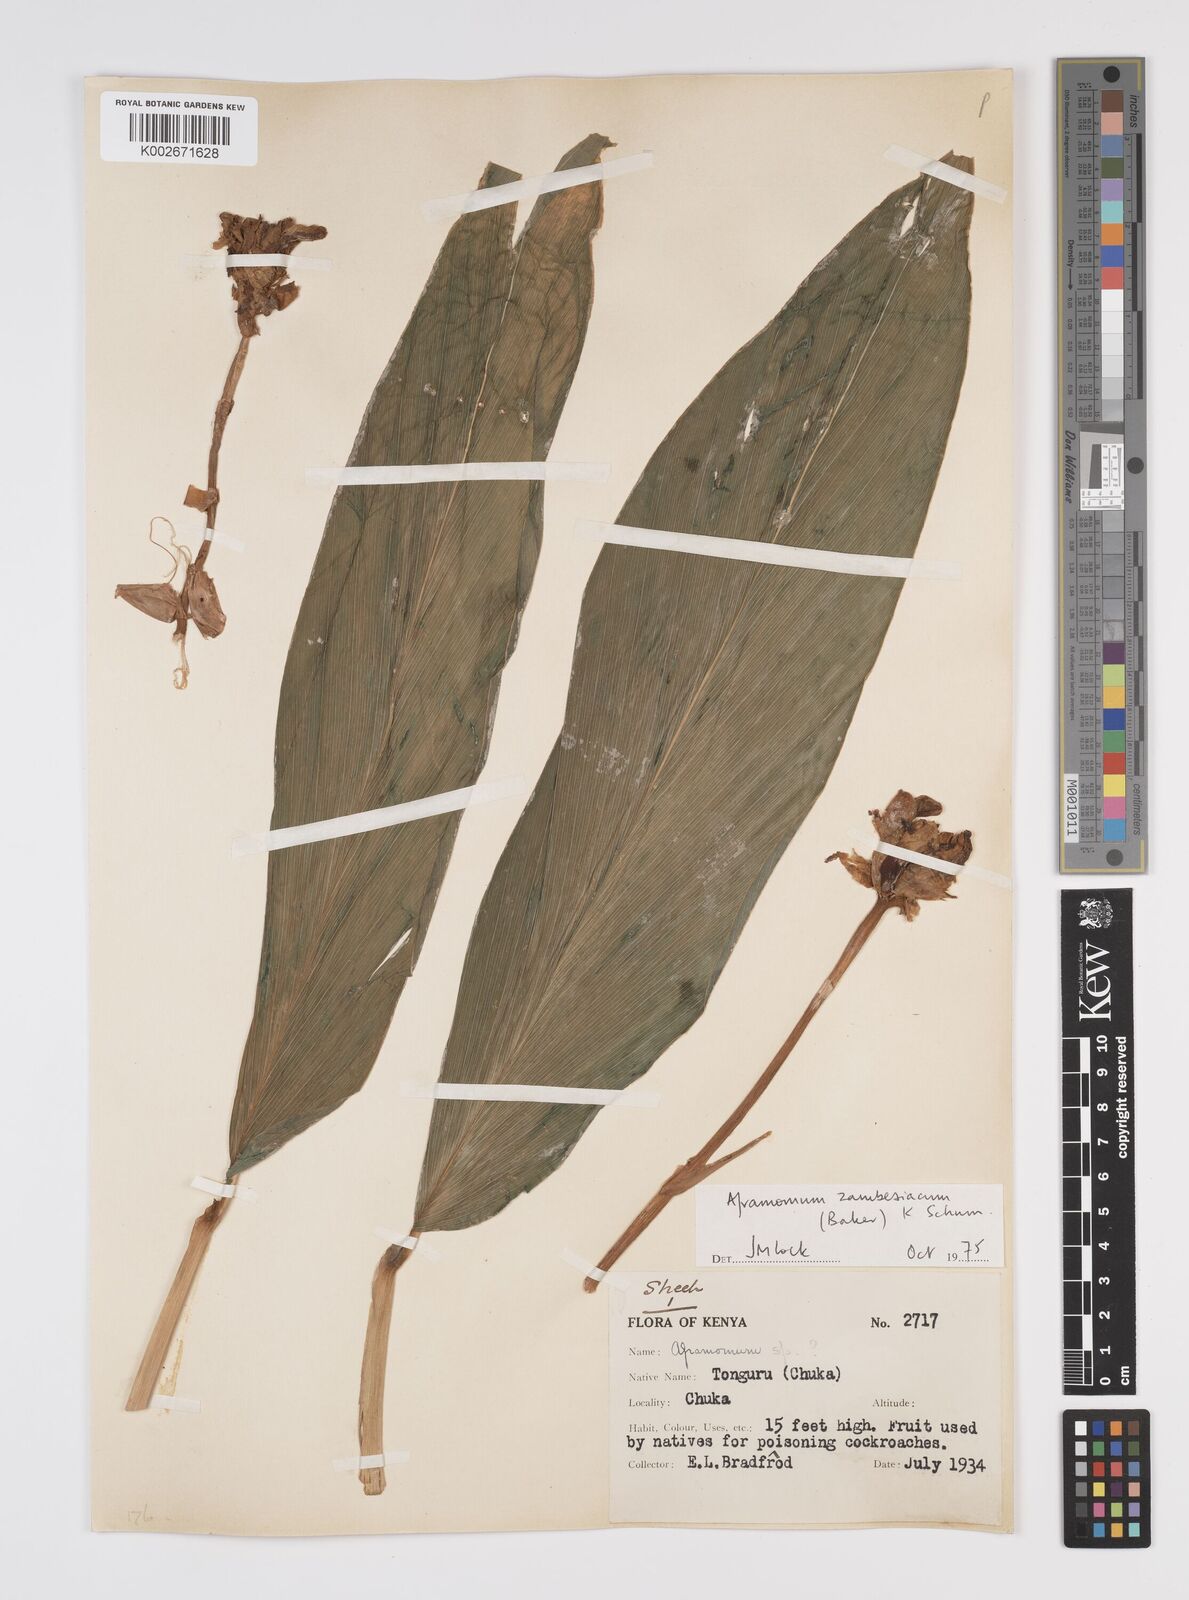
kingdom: Plantae
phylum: Tracheophyta
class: Liliopsida
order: Zingiberales
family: Zingiberaceae
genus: Aframomum
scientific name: Aframomum zambesiacum
